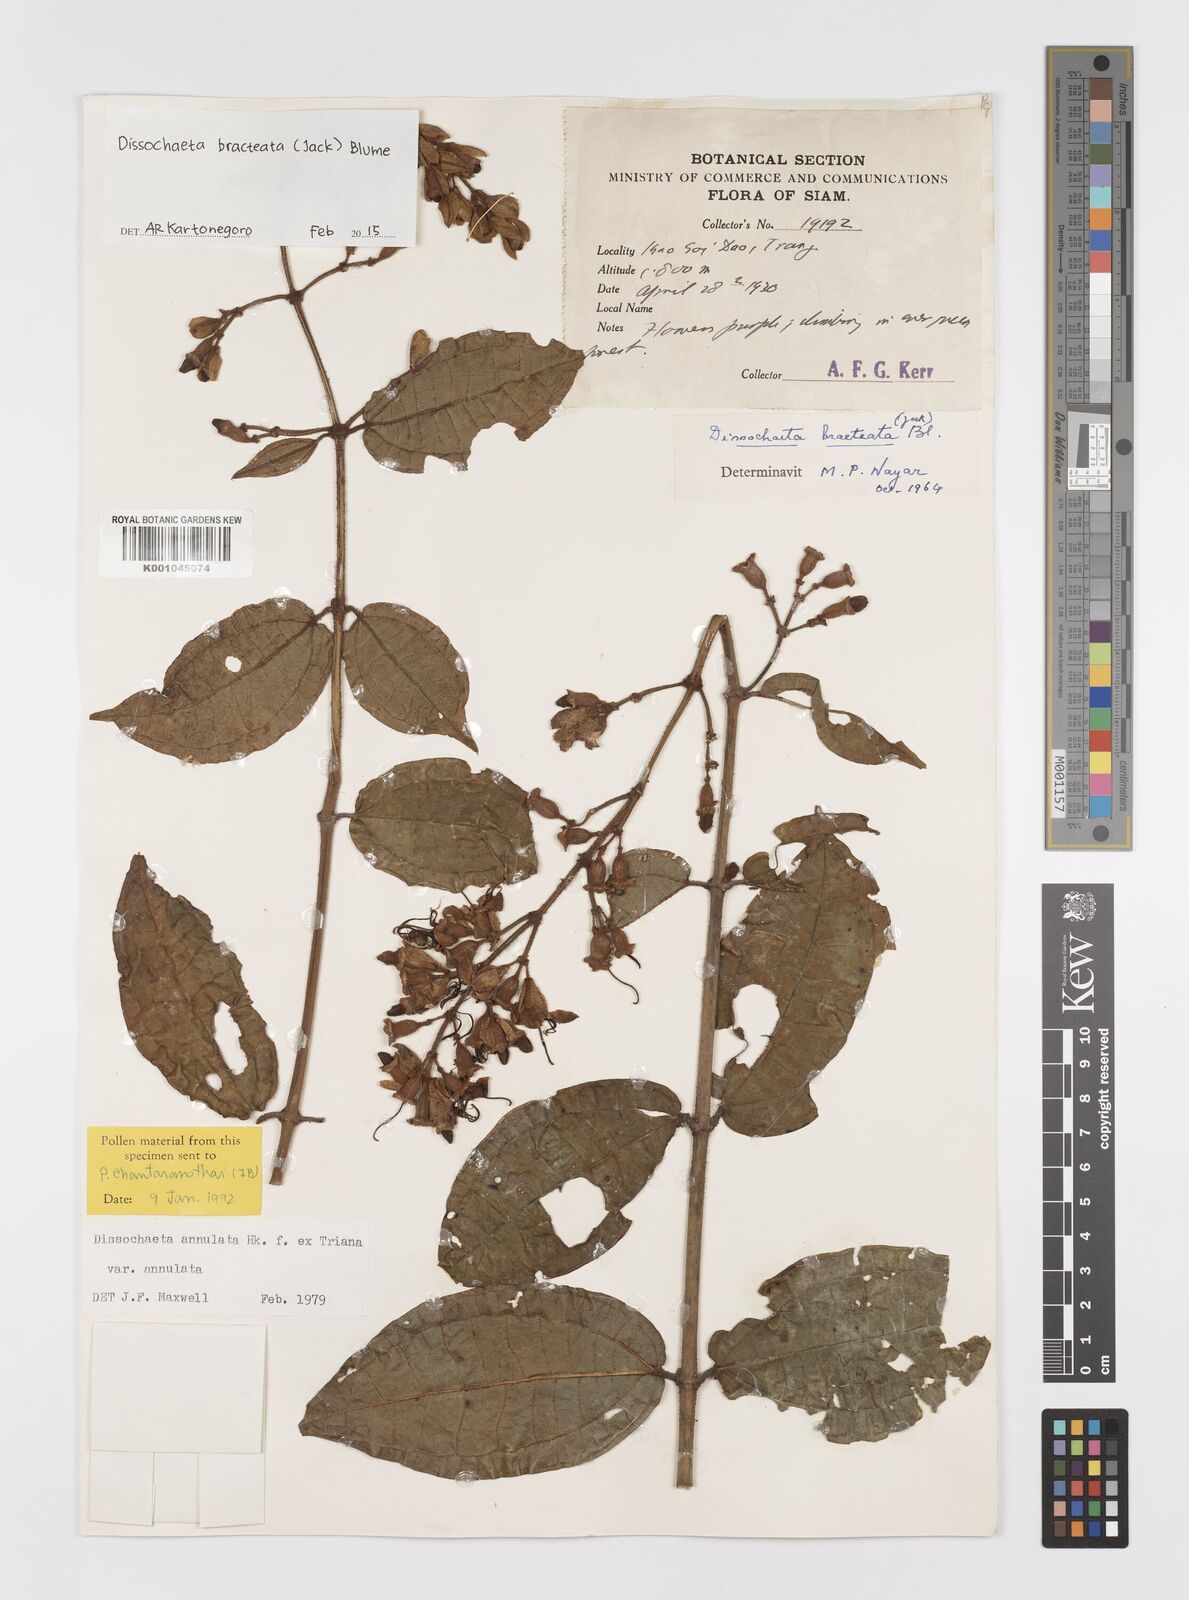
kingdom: Plantae
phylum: Tracheophyta
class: Magnoliopsida
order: Myrtales
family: Melastomataceae
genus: Dissochaeta
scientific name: Dissochaeta bracteata
